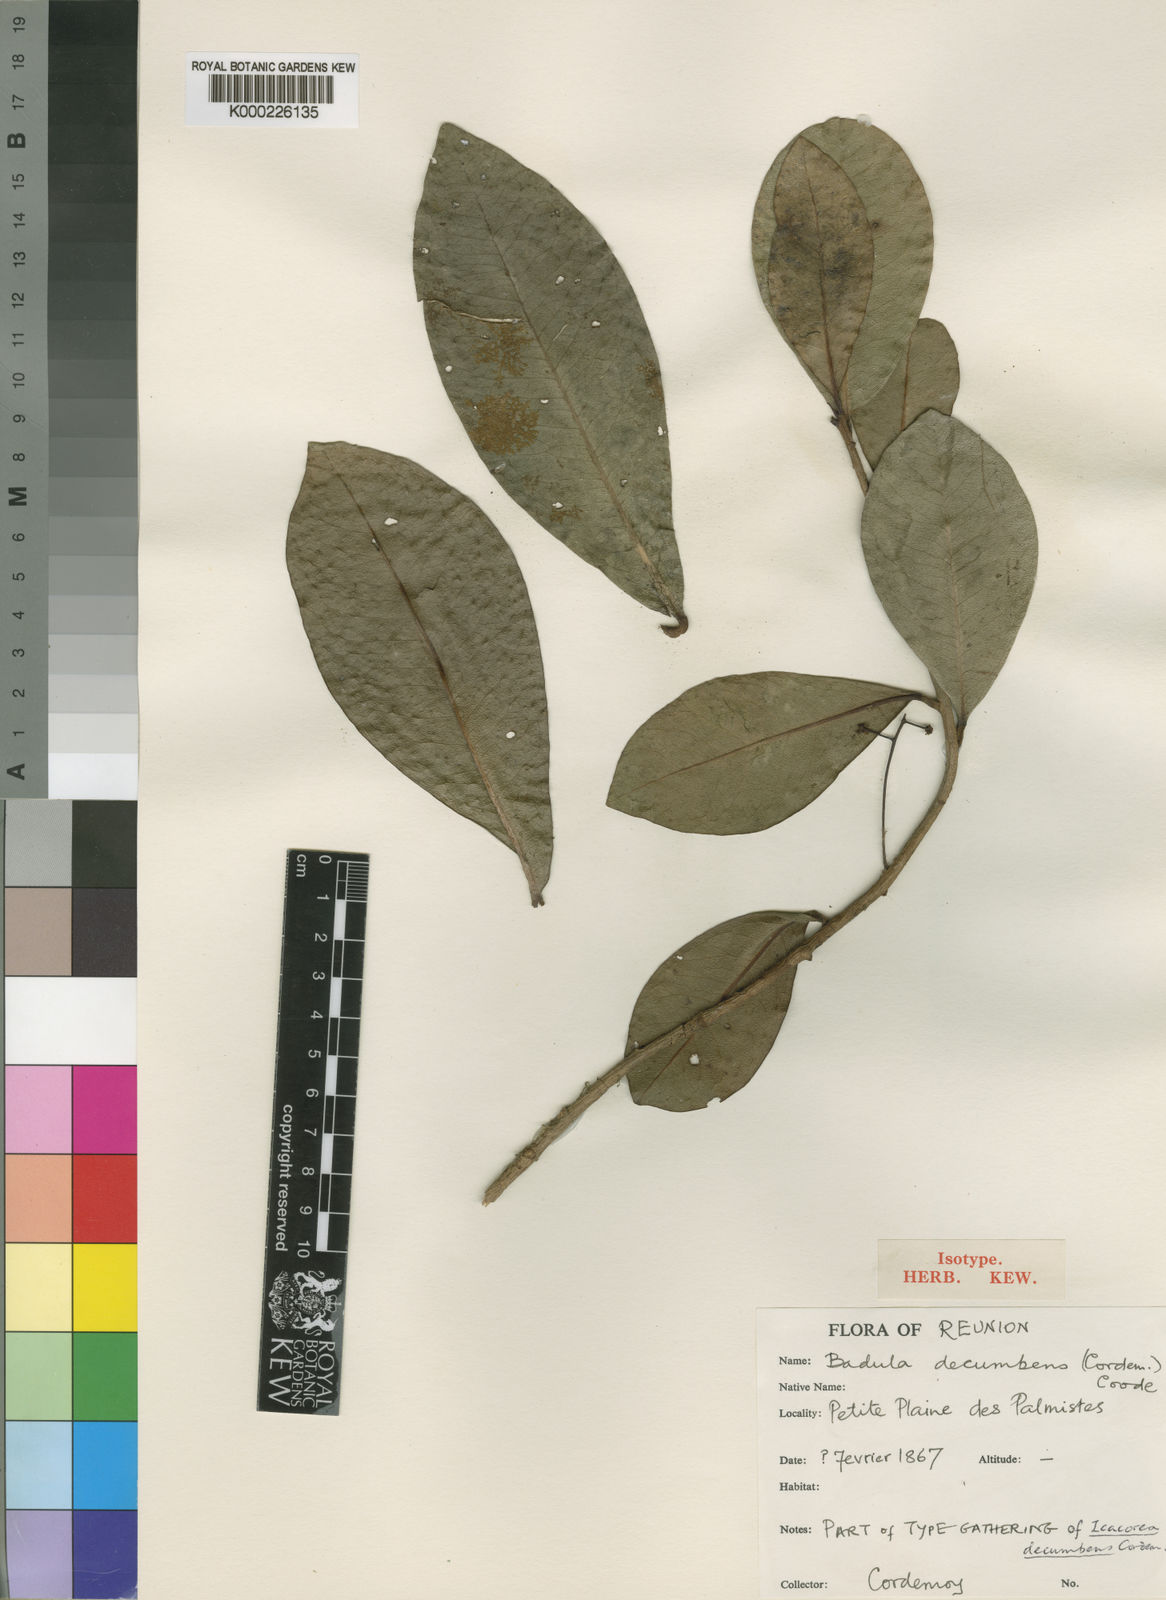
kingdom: Plantae
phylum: Tracheophyta
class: Magnoliopsida
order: Ericales
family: Primulaceae
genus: Badula
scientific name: Badula decumbens
